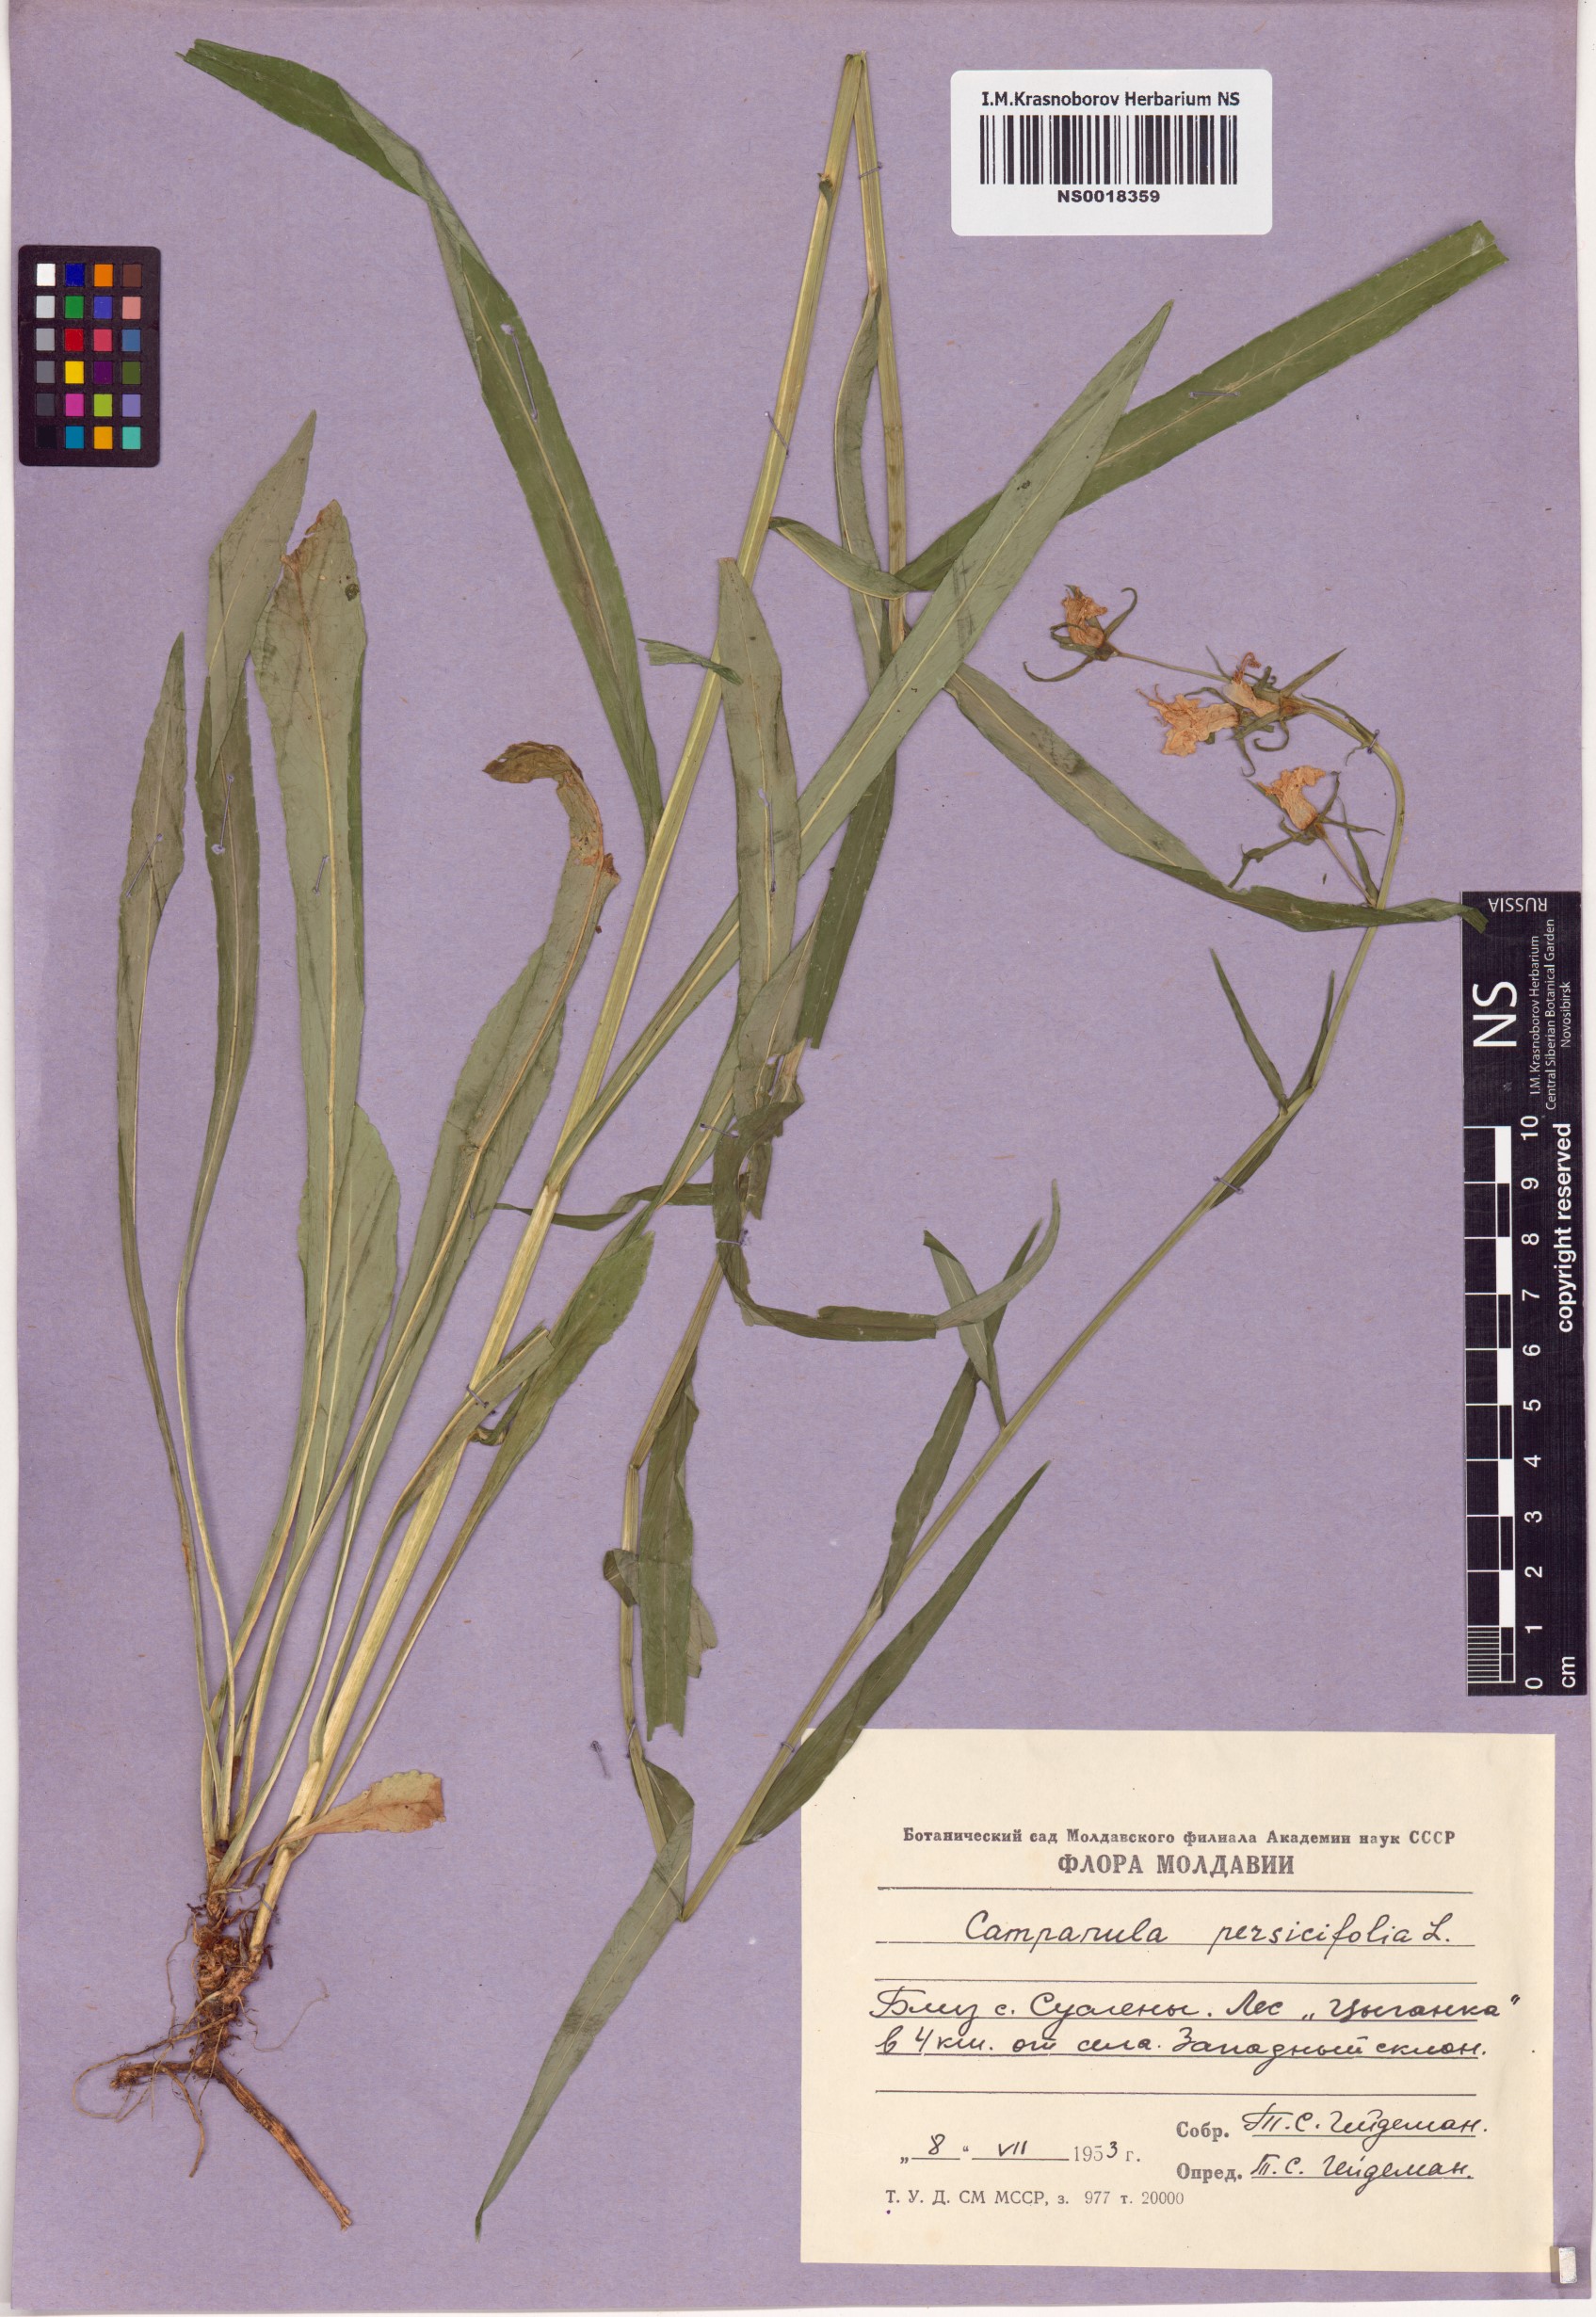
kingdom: Plantae
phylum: Tracheophyta
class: Magnoliopsida
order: Asterales
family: Campanulaceae
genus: Campanula
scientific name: Campanula persicifolia
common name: Peach-leaved bellflower
